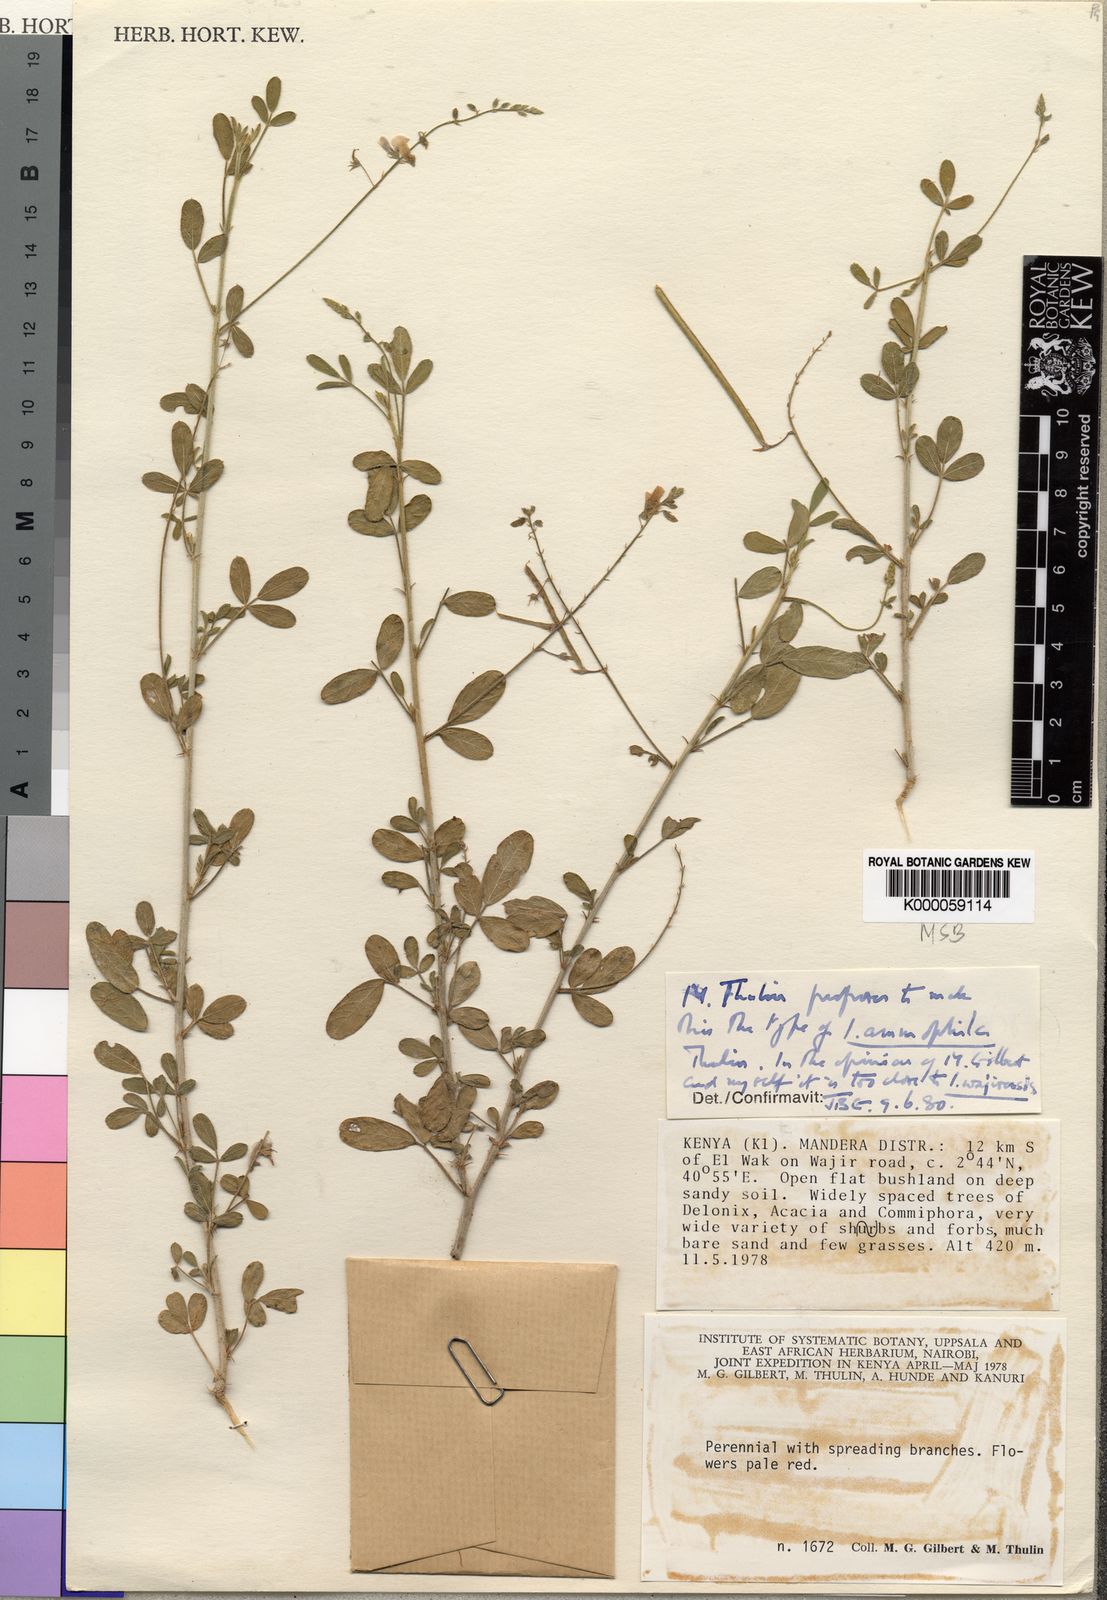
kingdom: Plantae
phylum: Tracheophyta
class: Magnoliopsida
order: Fabales
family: Fabaceae
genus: Microcharis
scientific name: Microcharis ammophila
